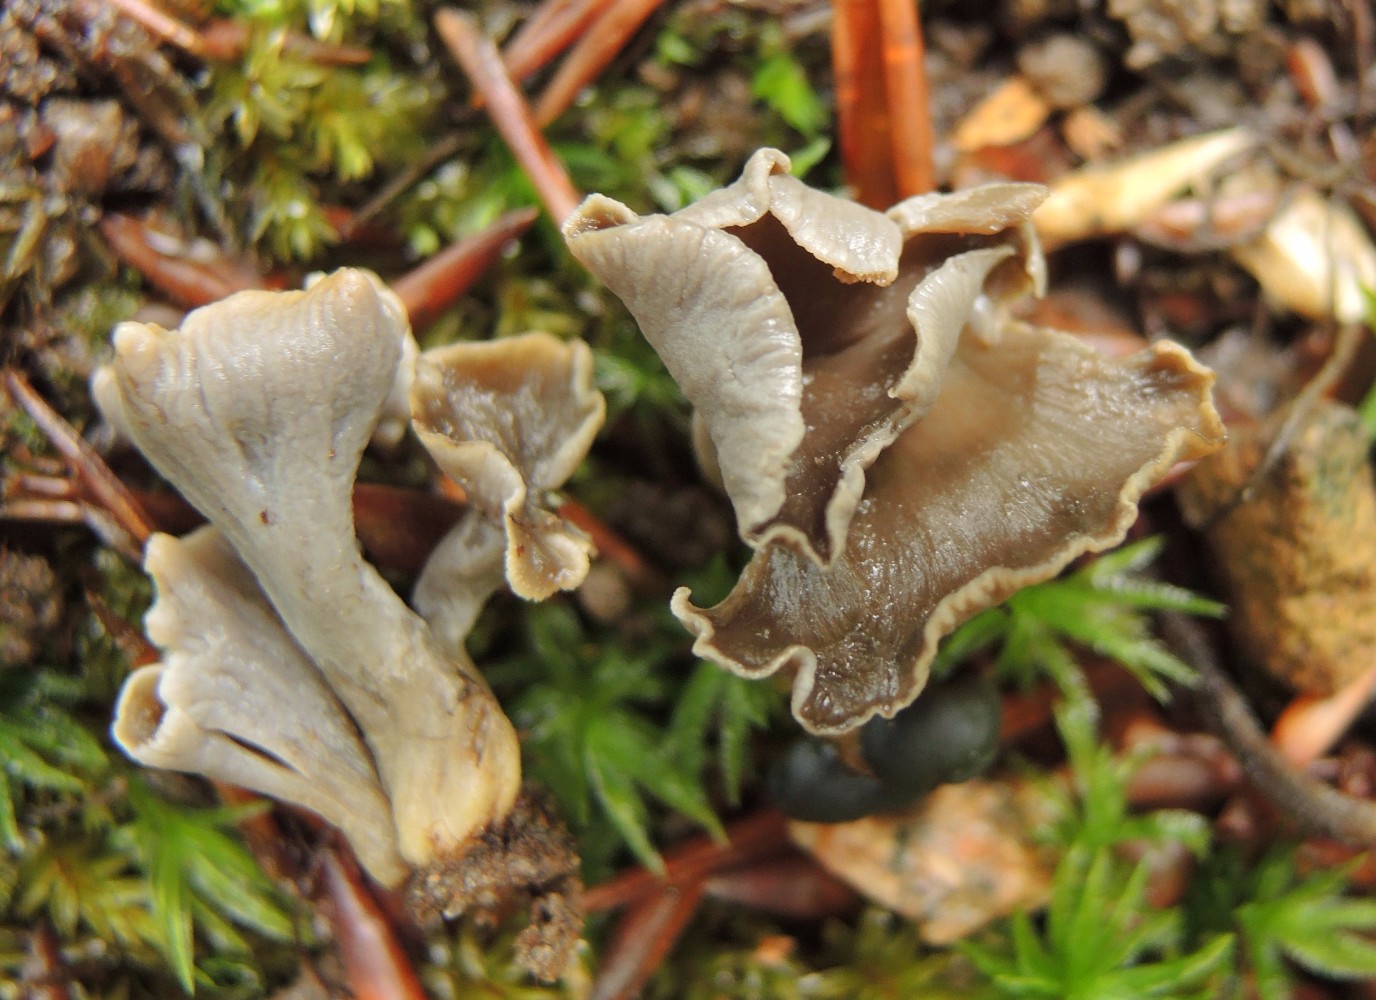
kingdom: Fungi
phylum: Basidiomycota
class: Agaricomycetes
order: Cantharellales
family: Hydnaceae
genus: Craterellus
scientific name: Craterellus undulatus
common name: liden kantarel
